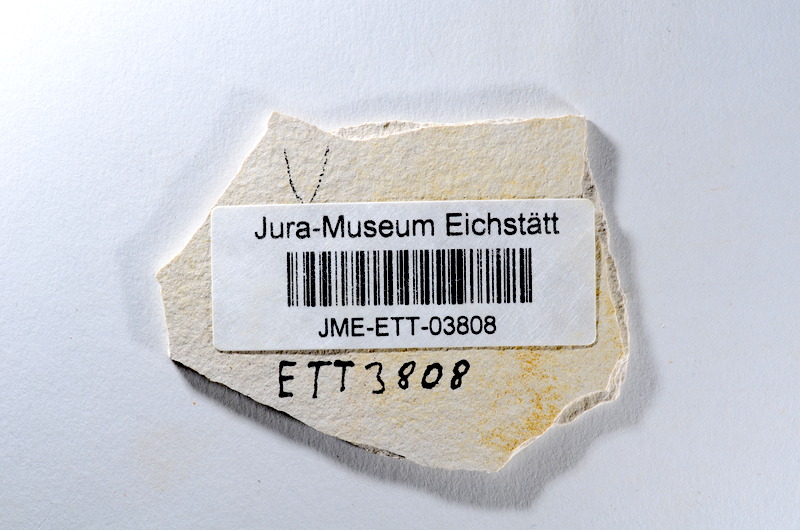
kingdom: Animalia
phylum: Chordata
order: Salmoniformes
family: Orthogonikleithridae
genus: Orthogonikleithrus
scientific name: Orthogonikleithrus hoelli
